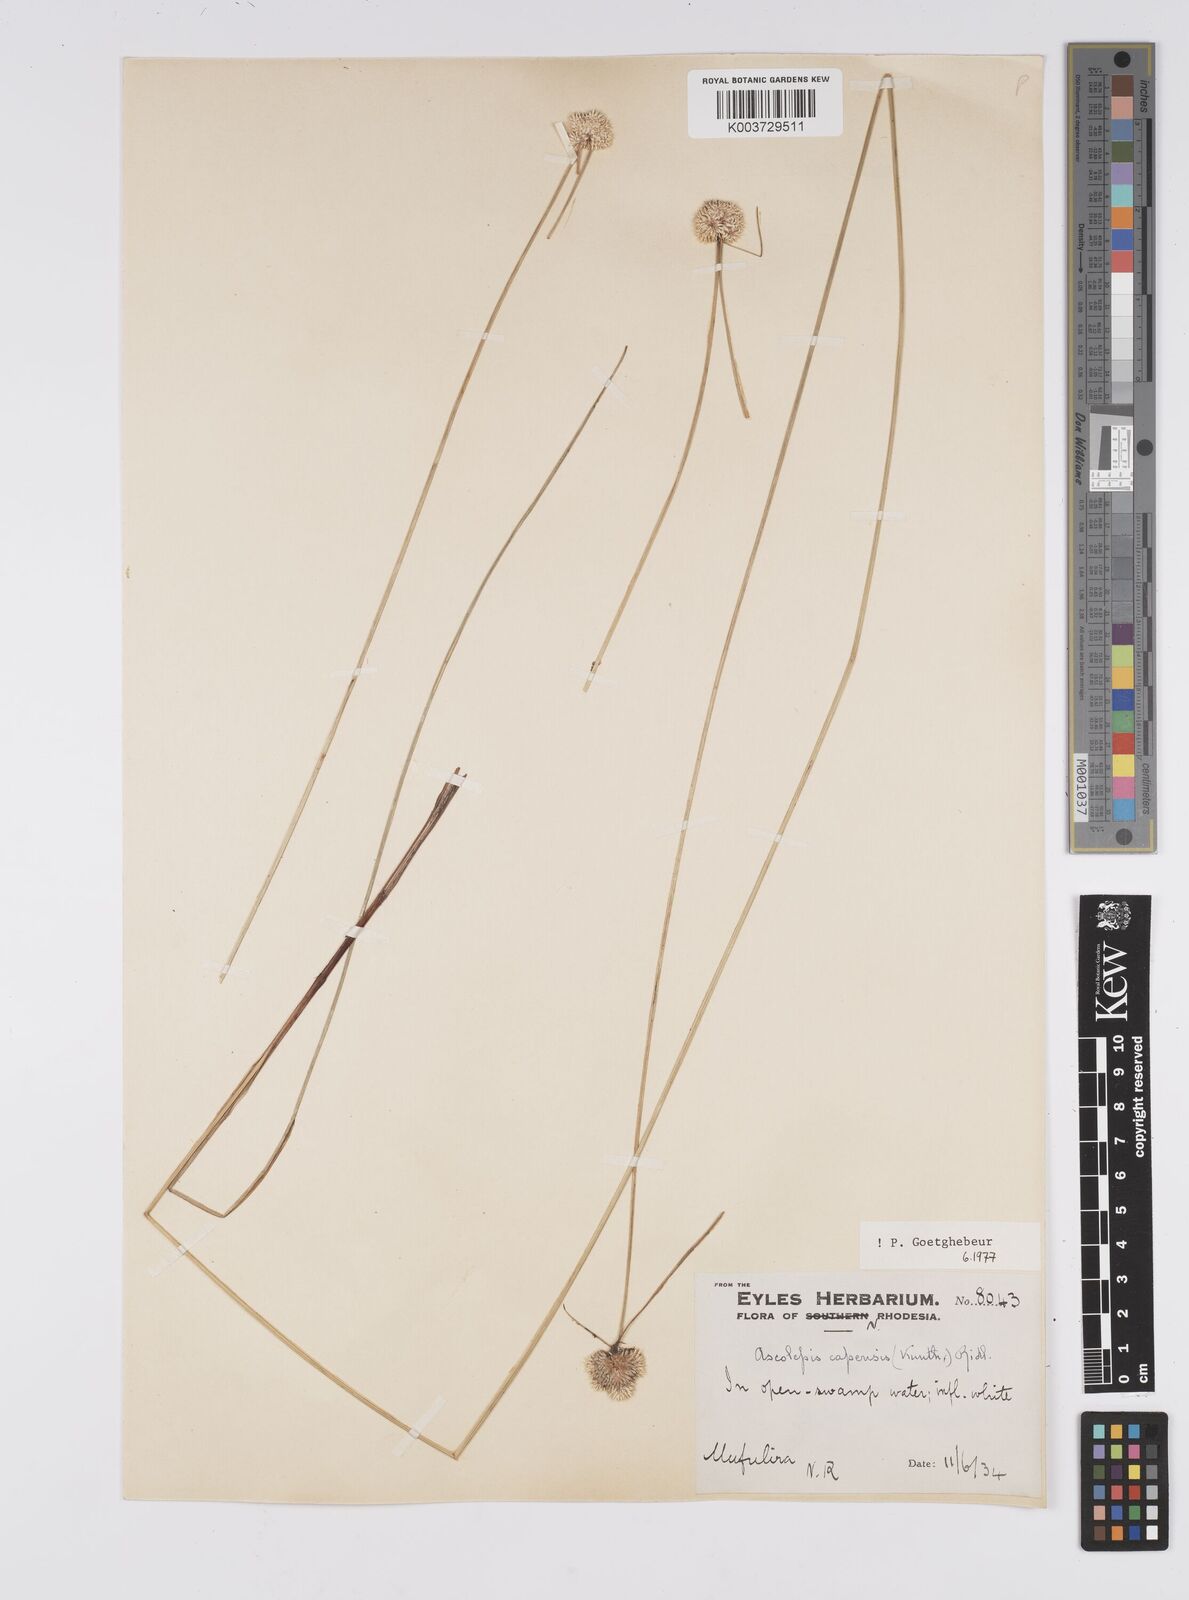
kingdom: Plantae
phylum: Tracheophyta
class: Liliopsida
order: Poales
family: Cyperaceae
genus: Cyperus
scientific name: Cyperus
